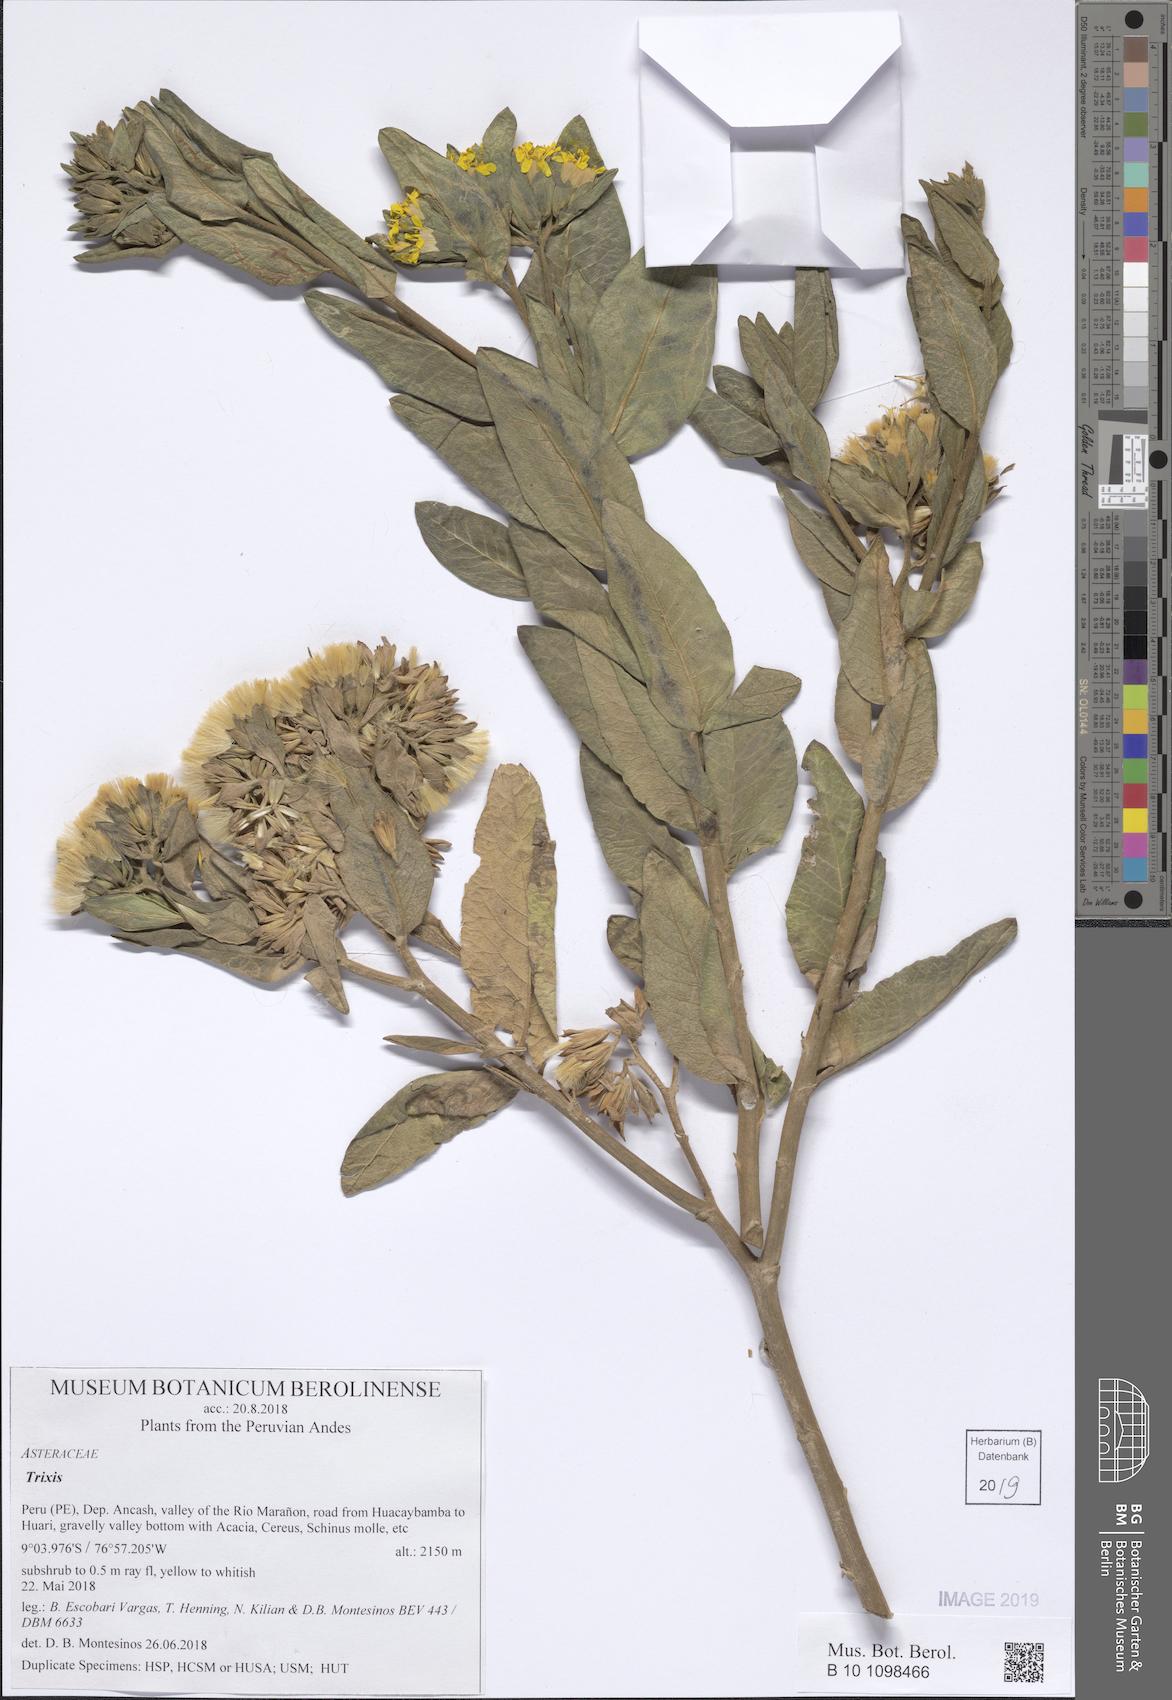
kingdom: Plantae
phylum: Tracheophyta
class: Magnoliopsida
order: Asterales
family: Asteraceae
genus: Trixis
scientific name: Trixis
